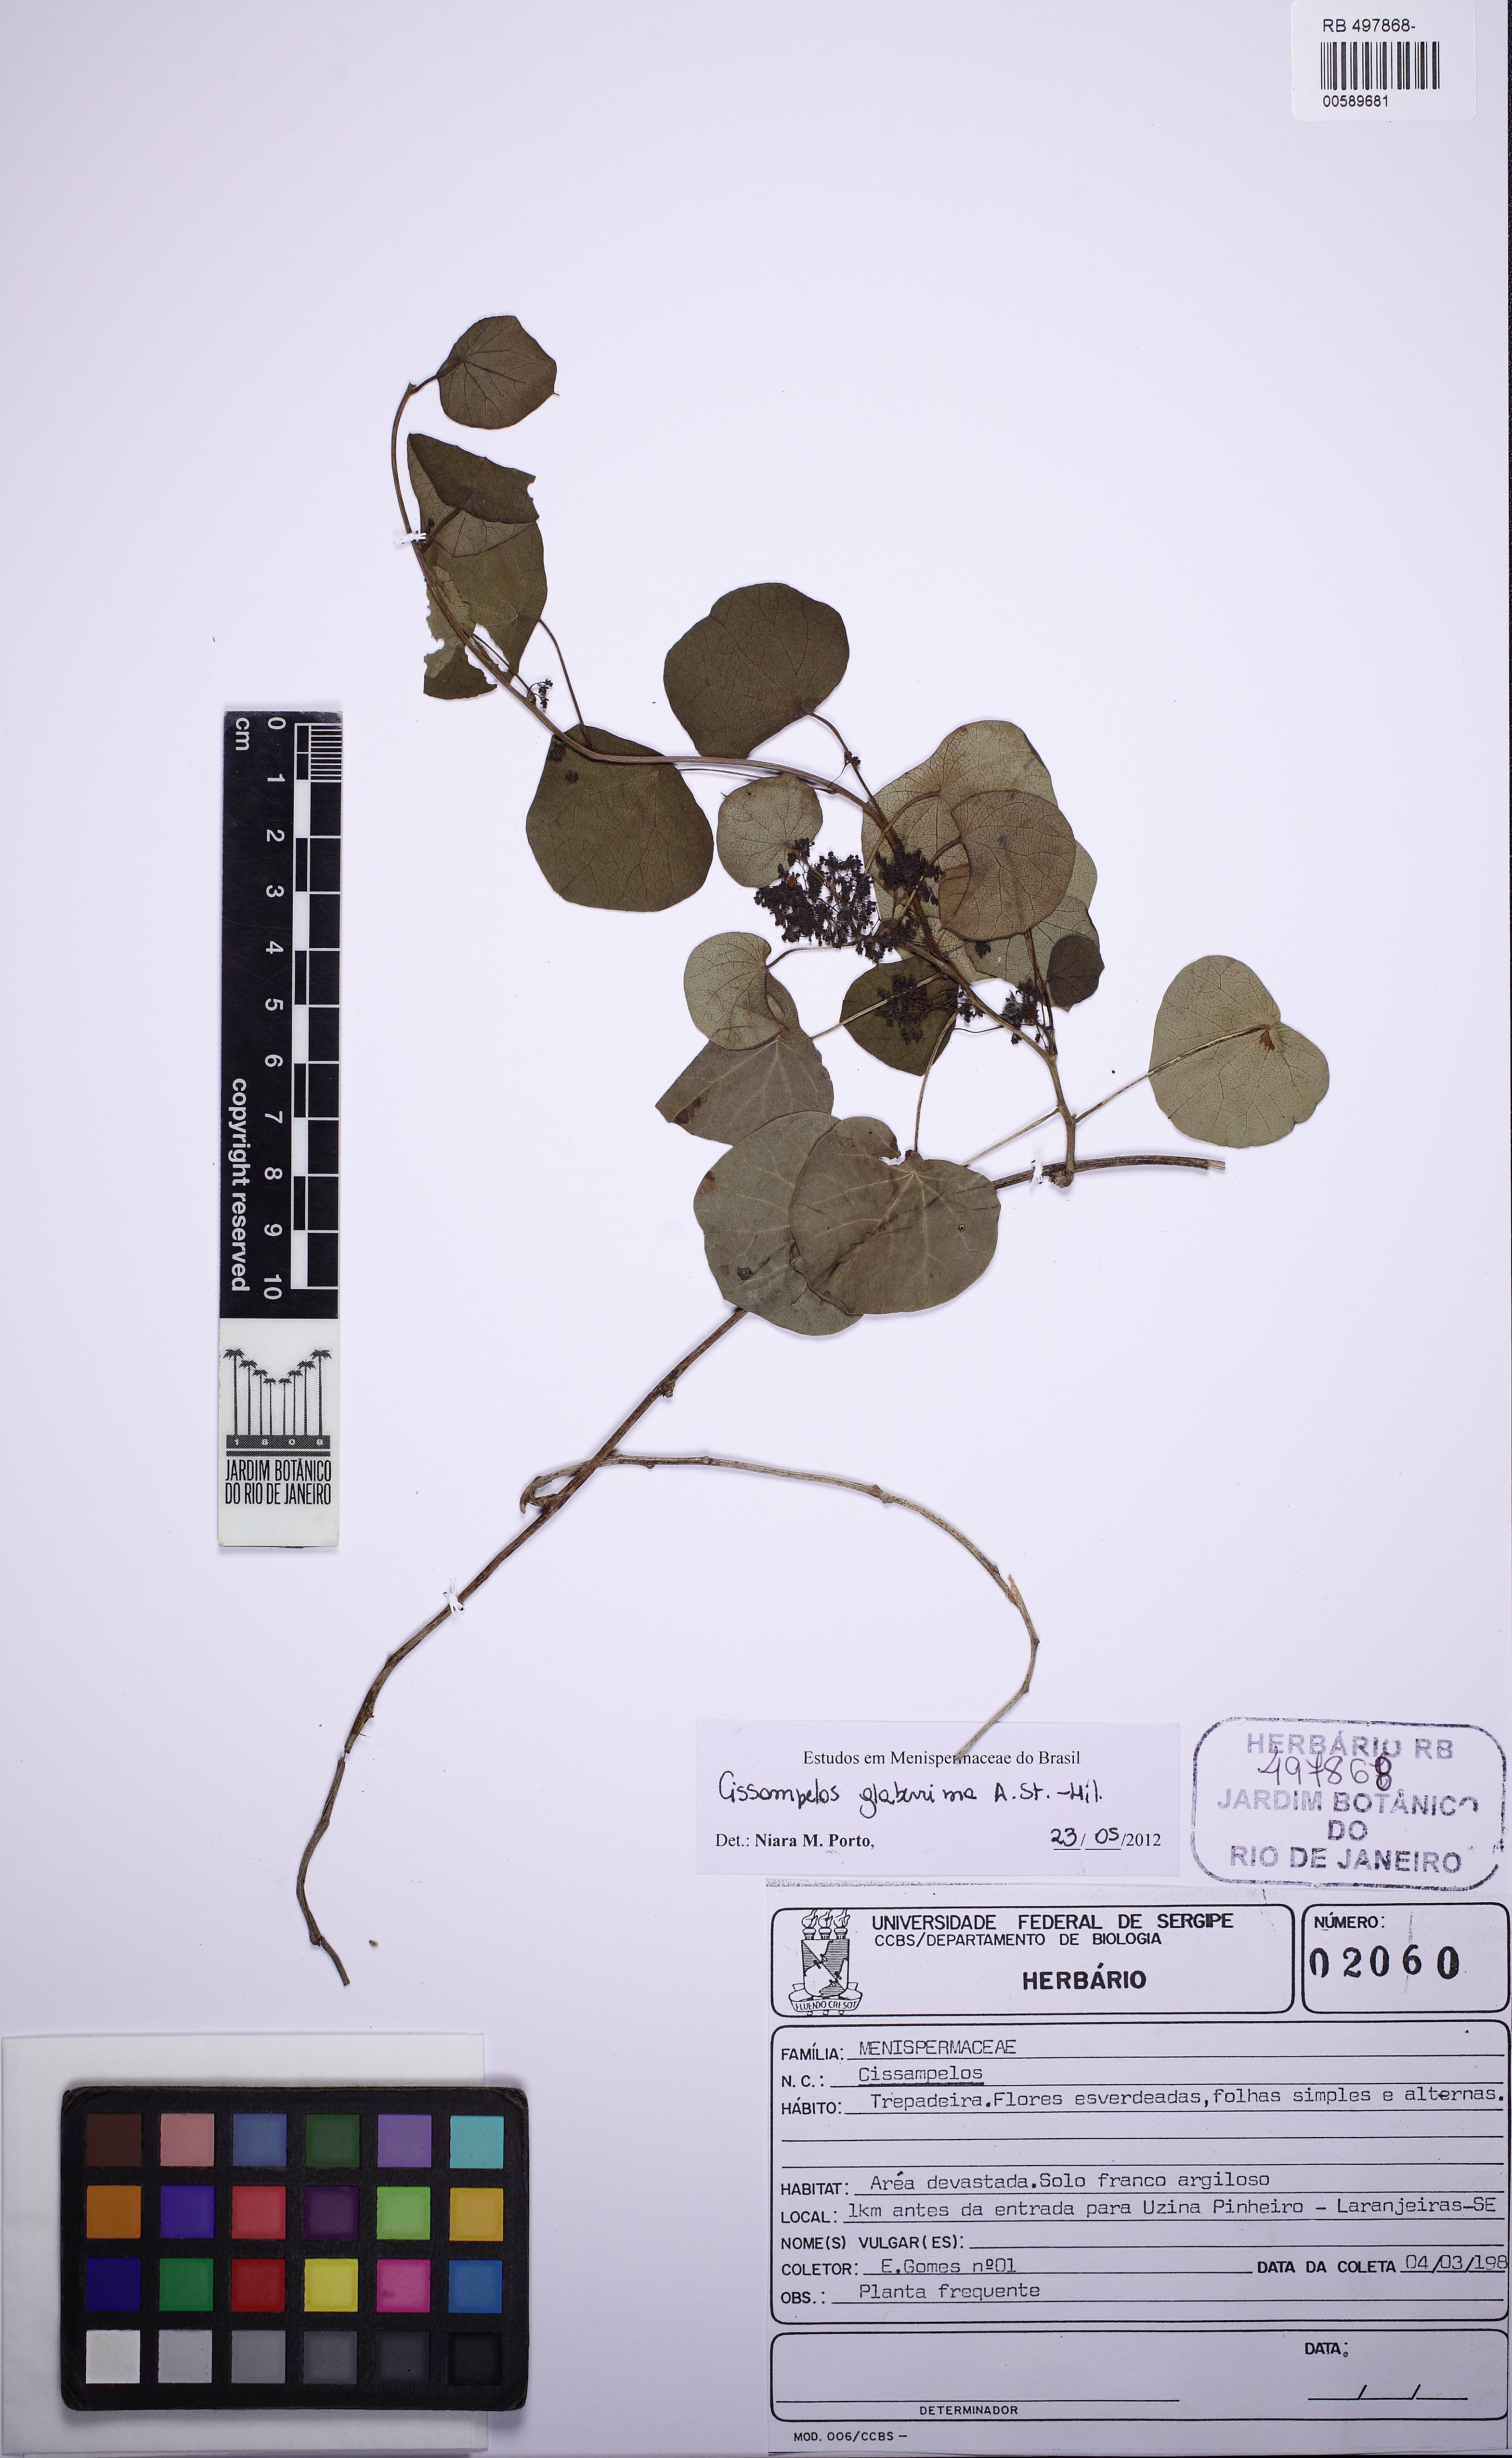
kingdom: Plantae
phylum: Tracheophyta
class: Magnoliopsida
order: Ranunculales
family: Menispermaceae
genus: Cissampelos
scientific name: Cissampelos glaberrima
